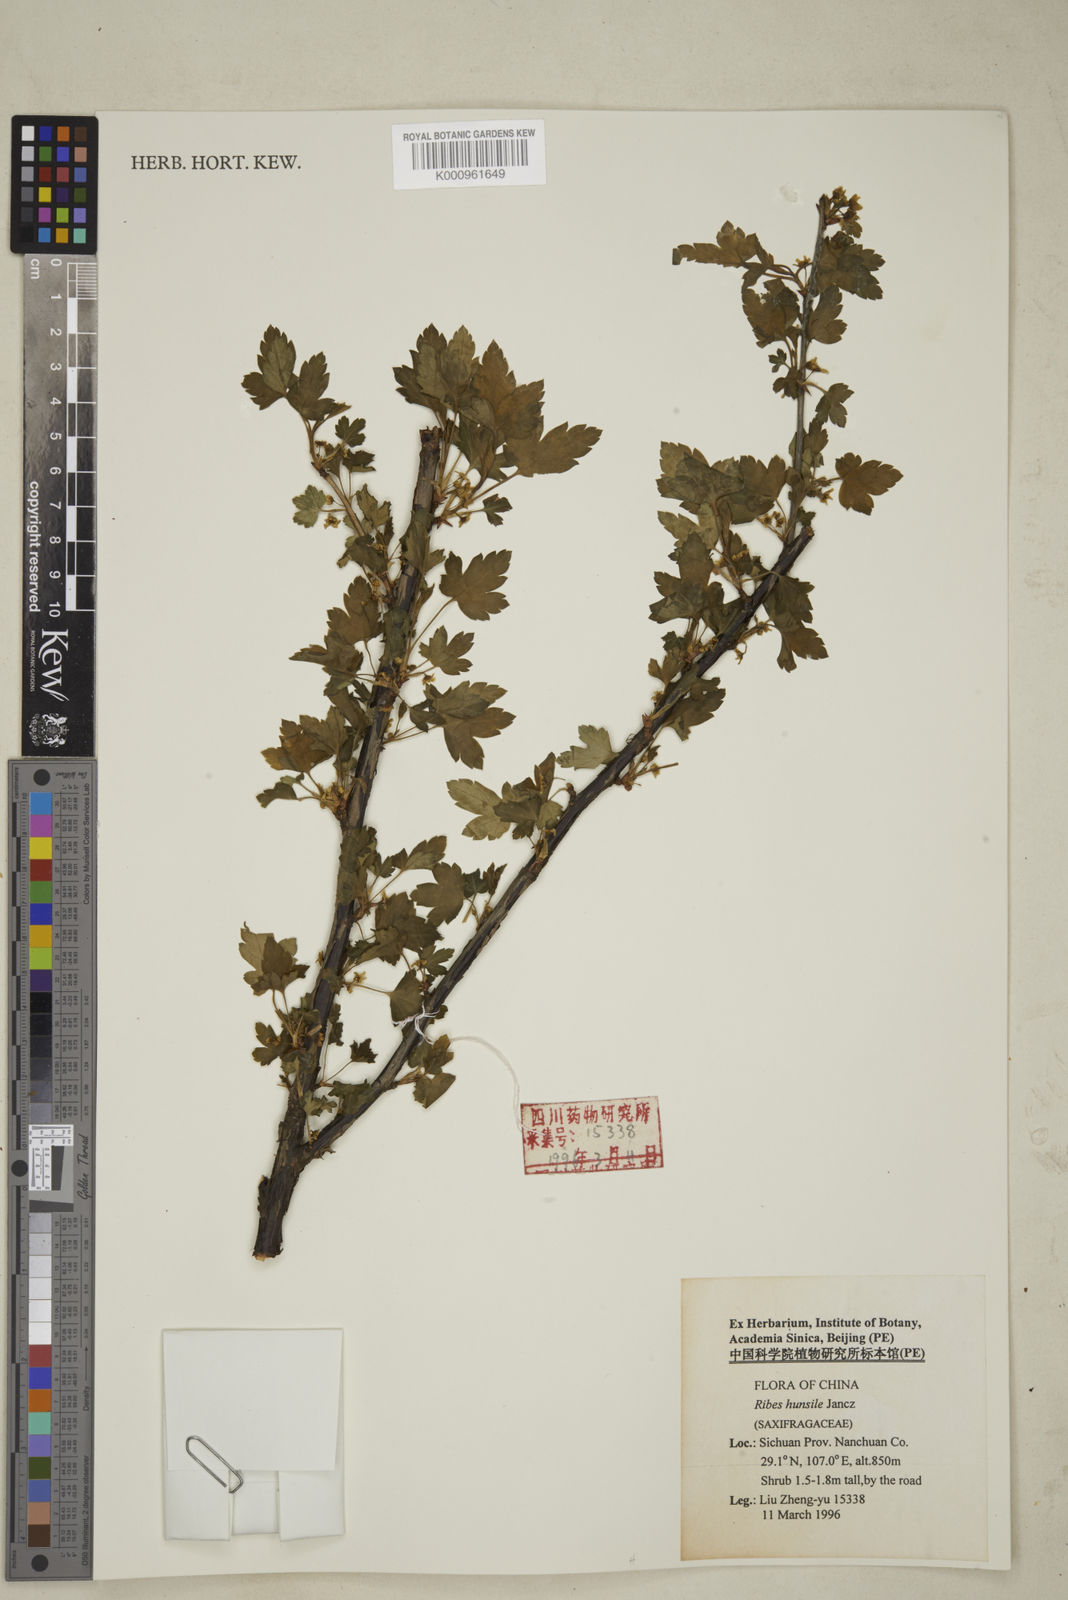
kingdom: Plantae
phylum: Tracheophyta
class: Magnoliopsida
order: Saxifragales
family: Grossulariaceae
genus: Ribes
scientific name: Ribes humile
